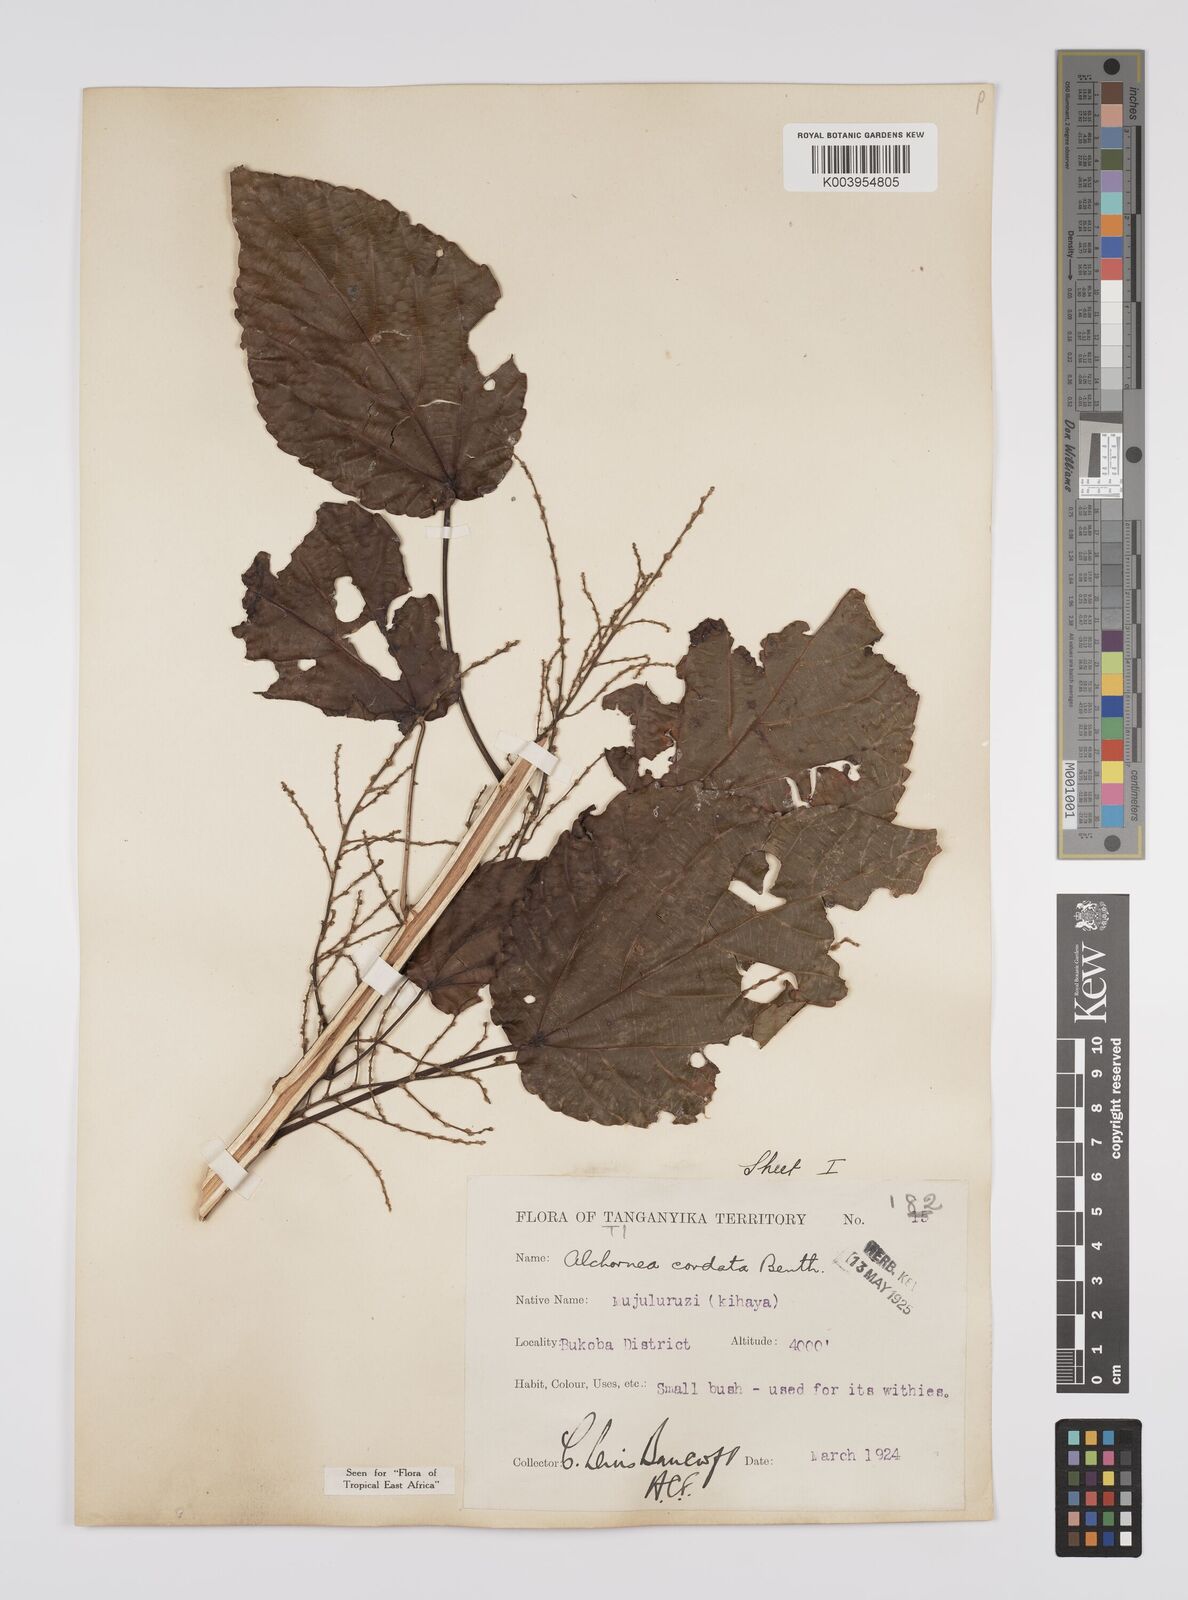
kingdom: Plantae
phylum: Tracheophyta
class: Magnoliopsida
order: Malpighiales
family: Euphorbiaceae
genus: Alchornea
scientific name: Alchornea cordifolia
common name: Christmasbush
